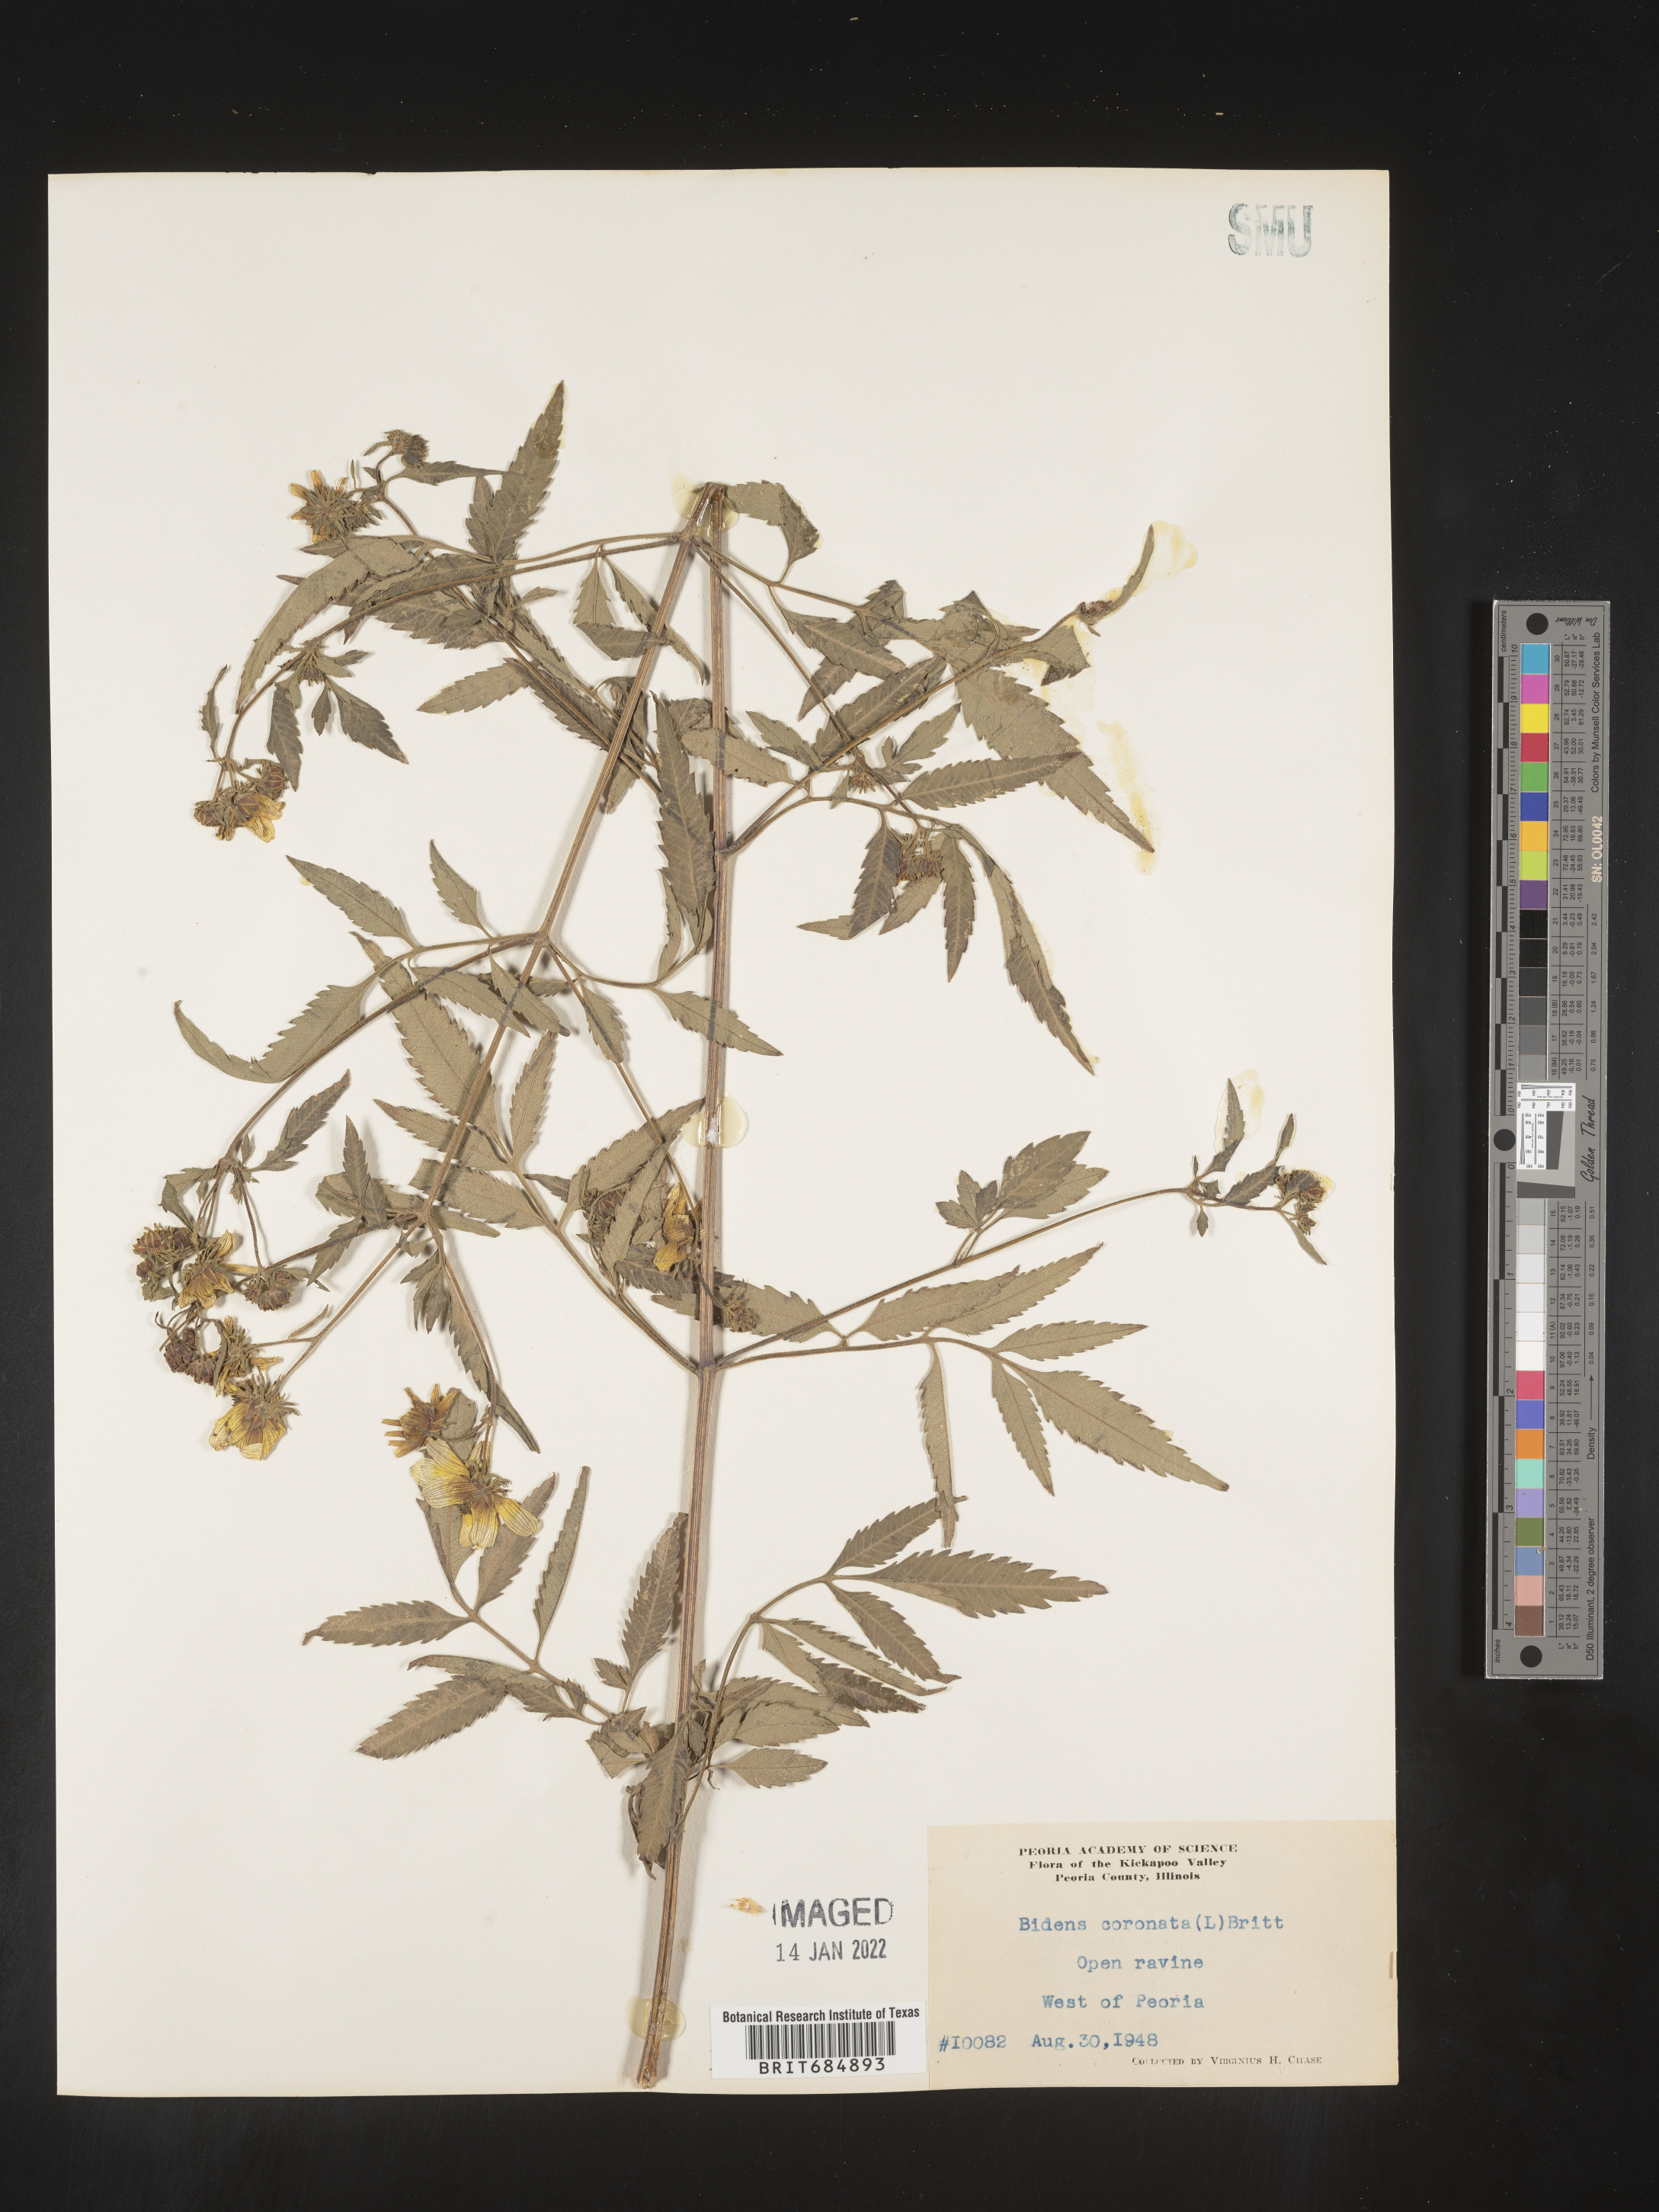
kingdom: Plantae
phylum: Tracheophyta
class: Magnoliopsida
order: Asterales
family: Asteraceae
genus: Bidens
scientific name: Bidens trichosperma
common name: Crowned beggarticks
